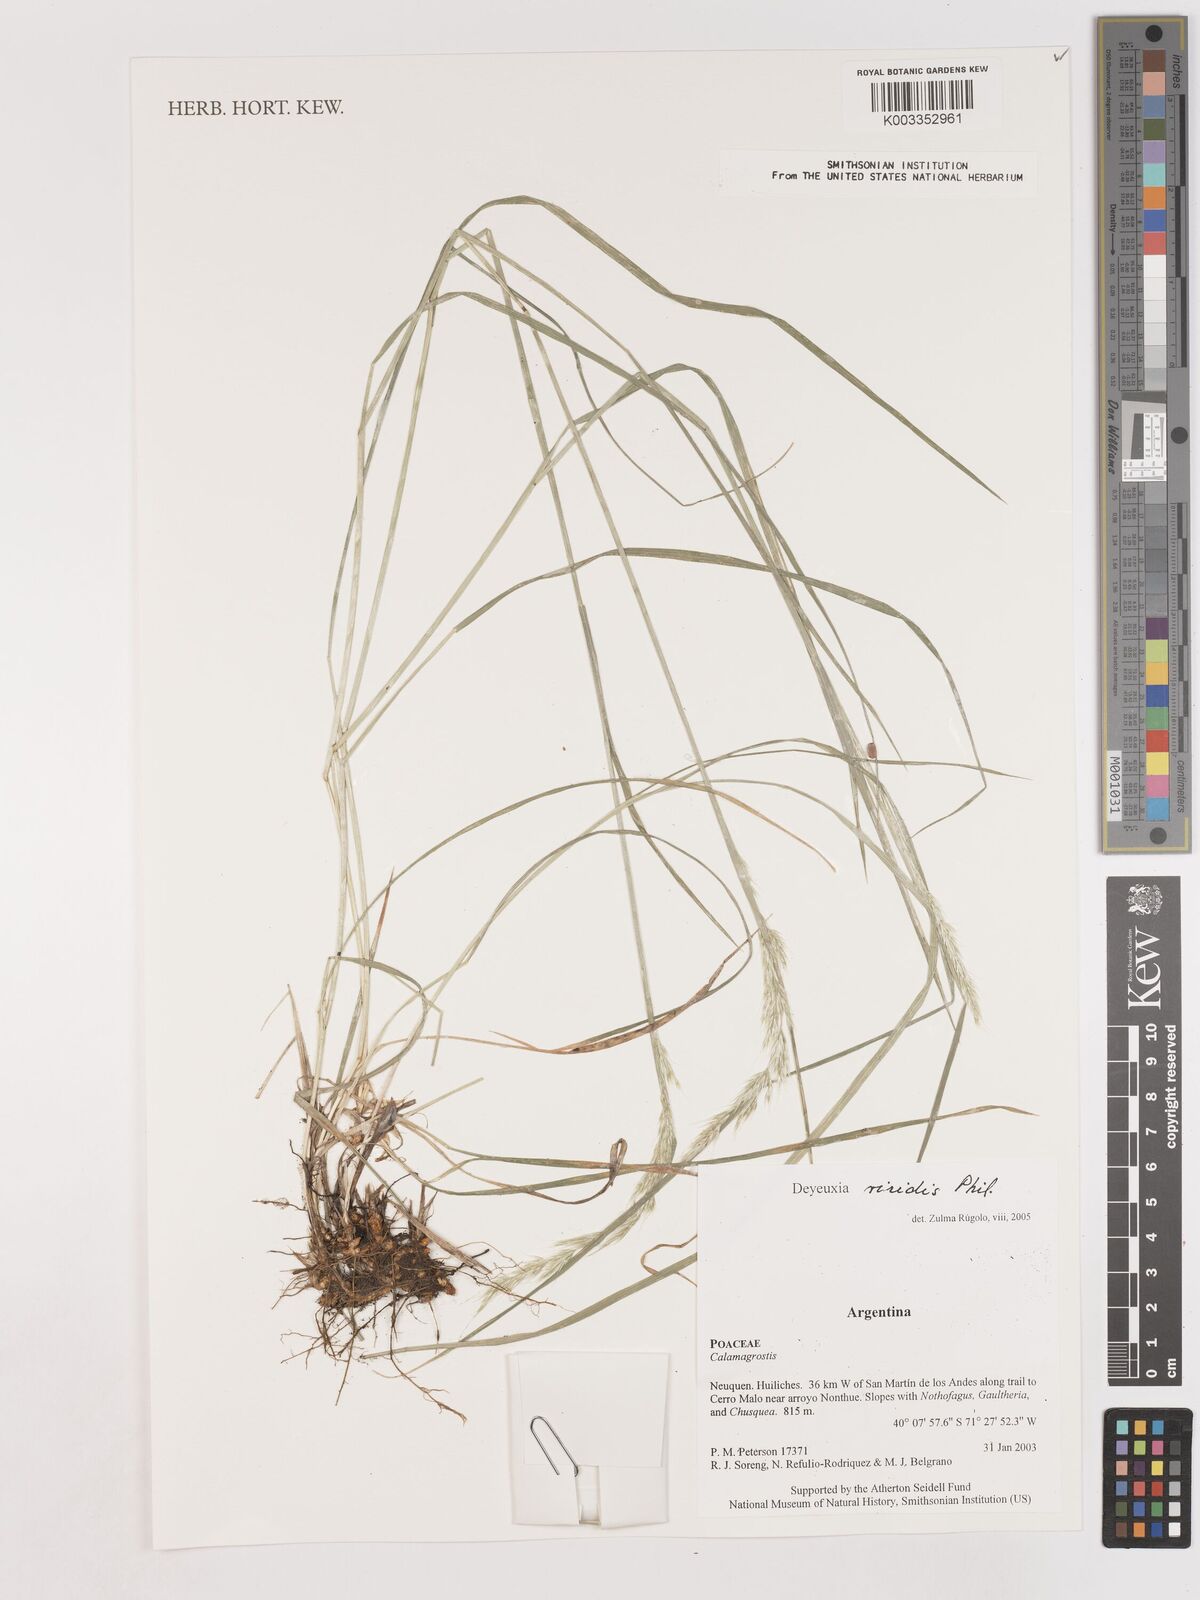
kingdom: Plantae
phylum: Tracheophyta
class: Liliopsida
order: Poales
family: Poaceae
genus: Cinnagrostis
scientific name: Cinnagrostis viridis
